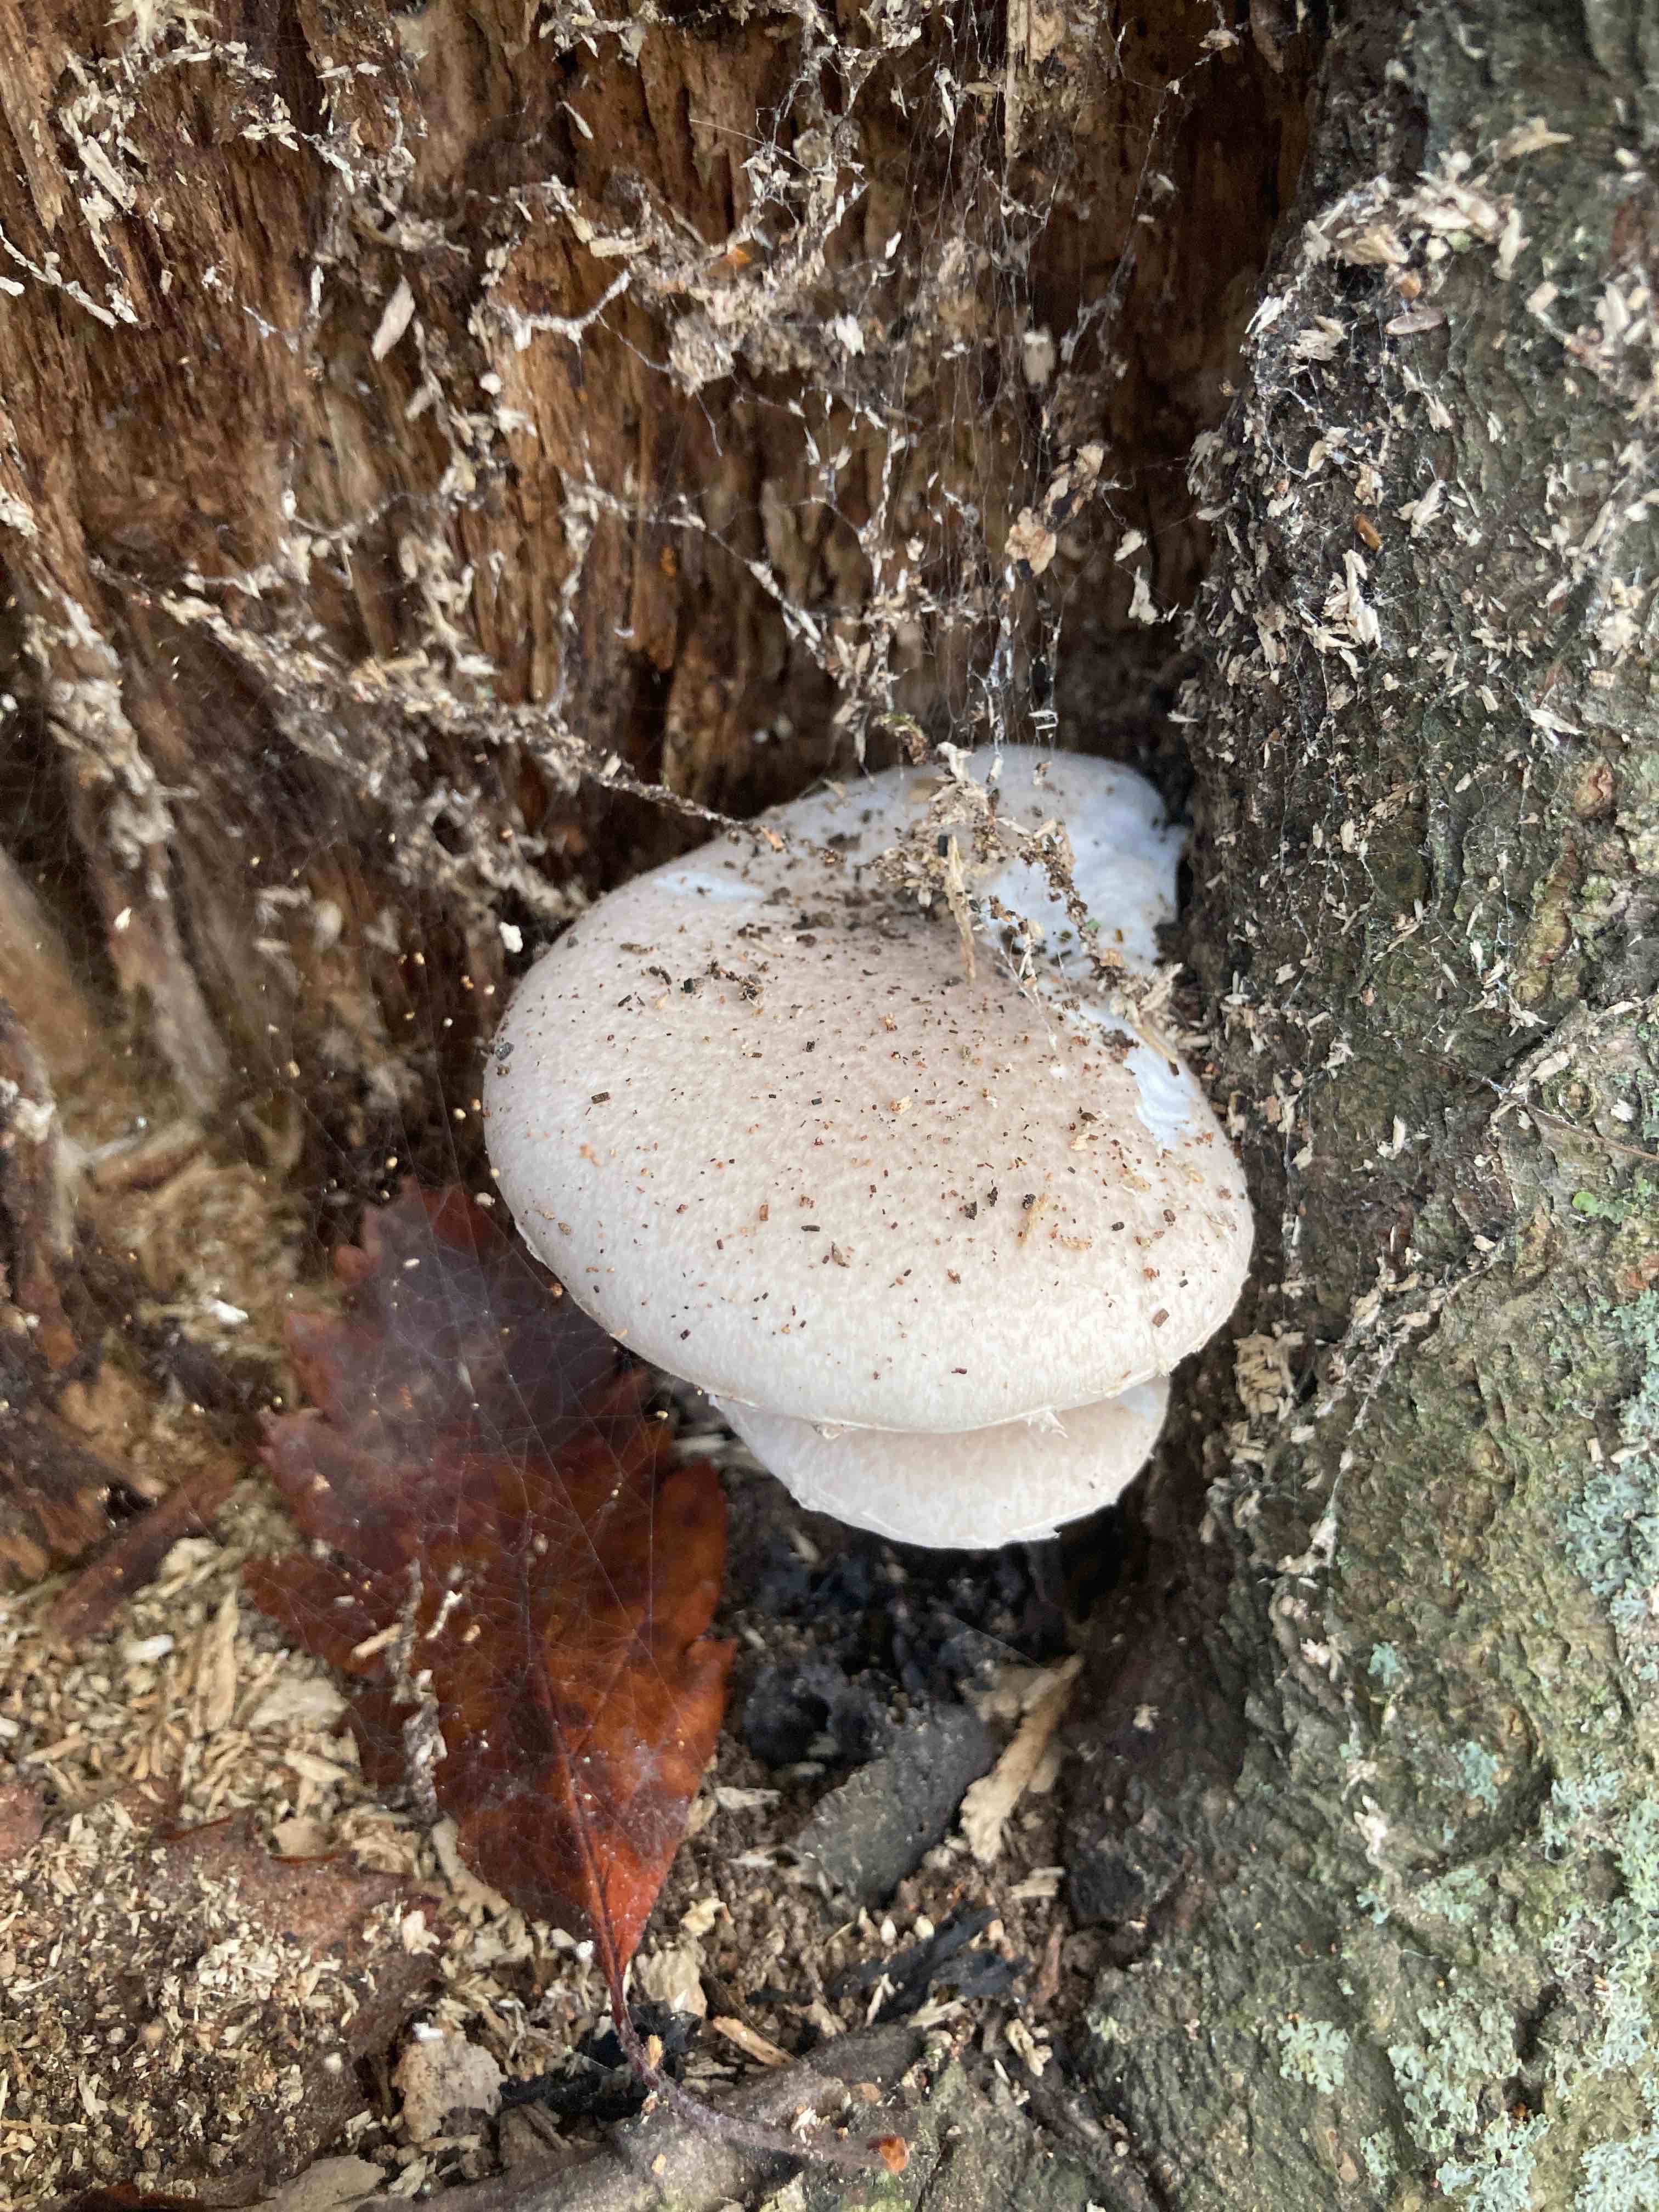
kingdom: Fungi
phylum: Basidiomycota
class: Agaricomycetes
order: Agaricales
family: Pleurotaceae
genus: Pleurotus
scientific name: Pleurotus dryinus
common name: korkagtig østershat
